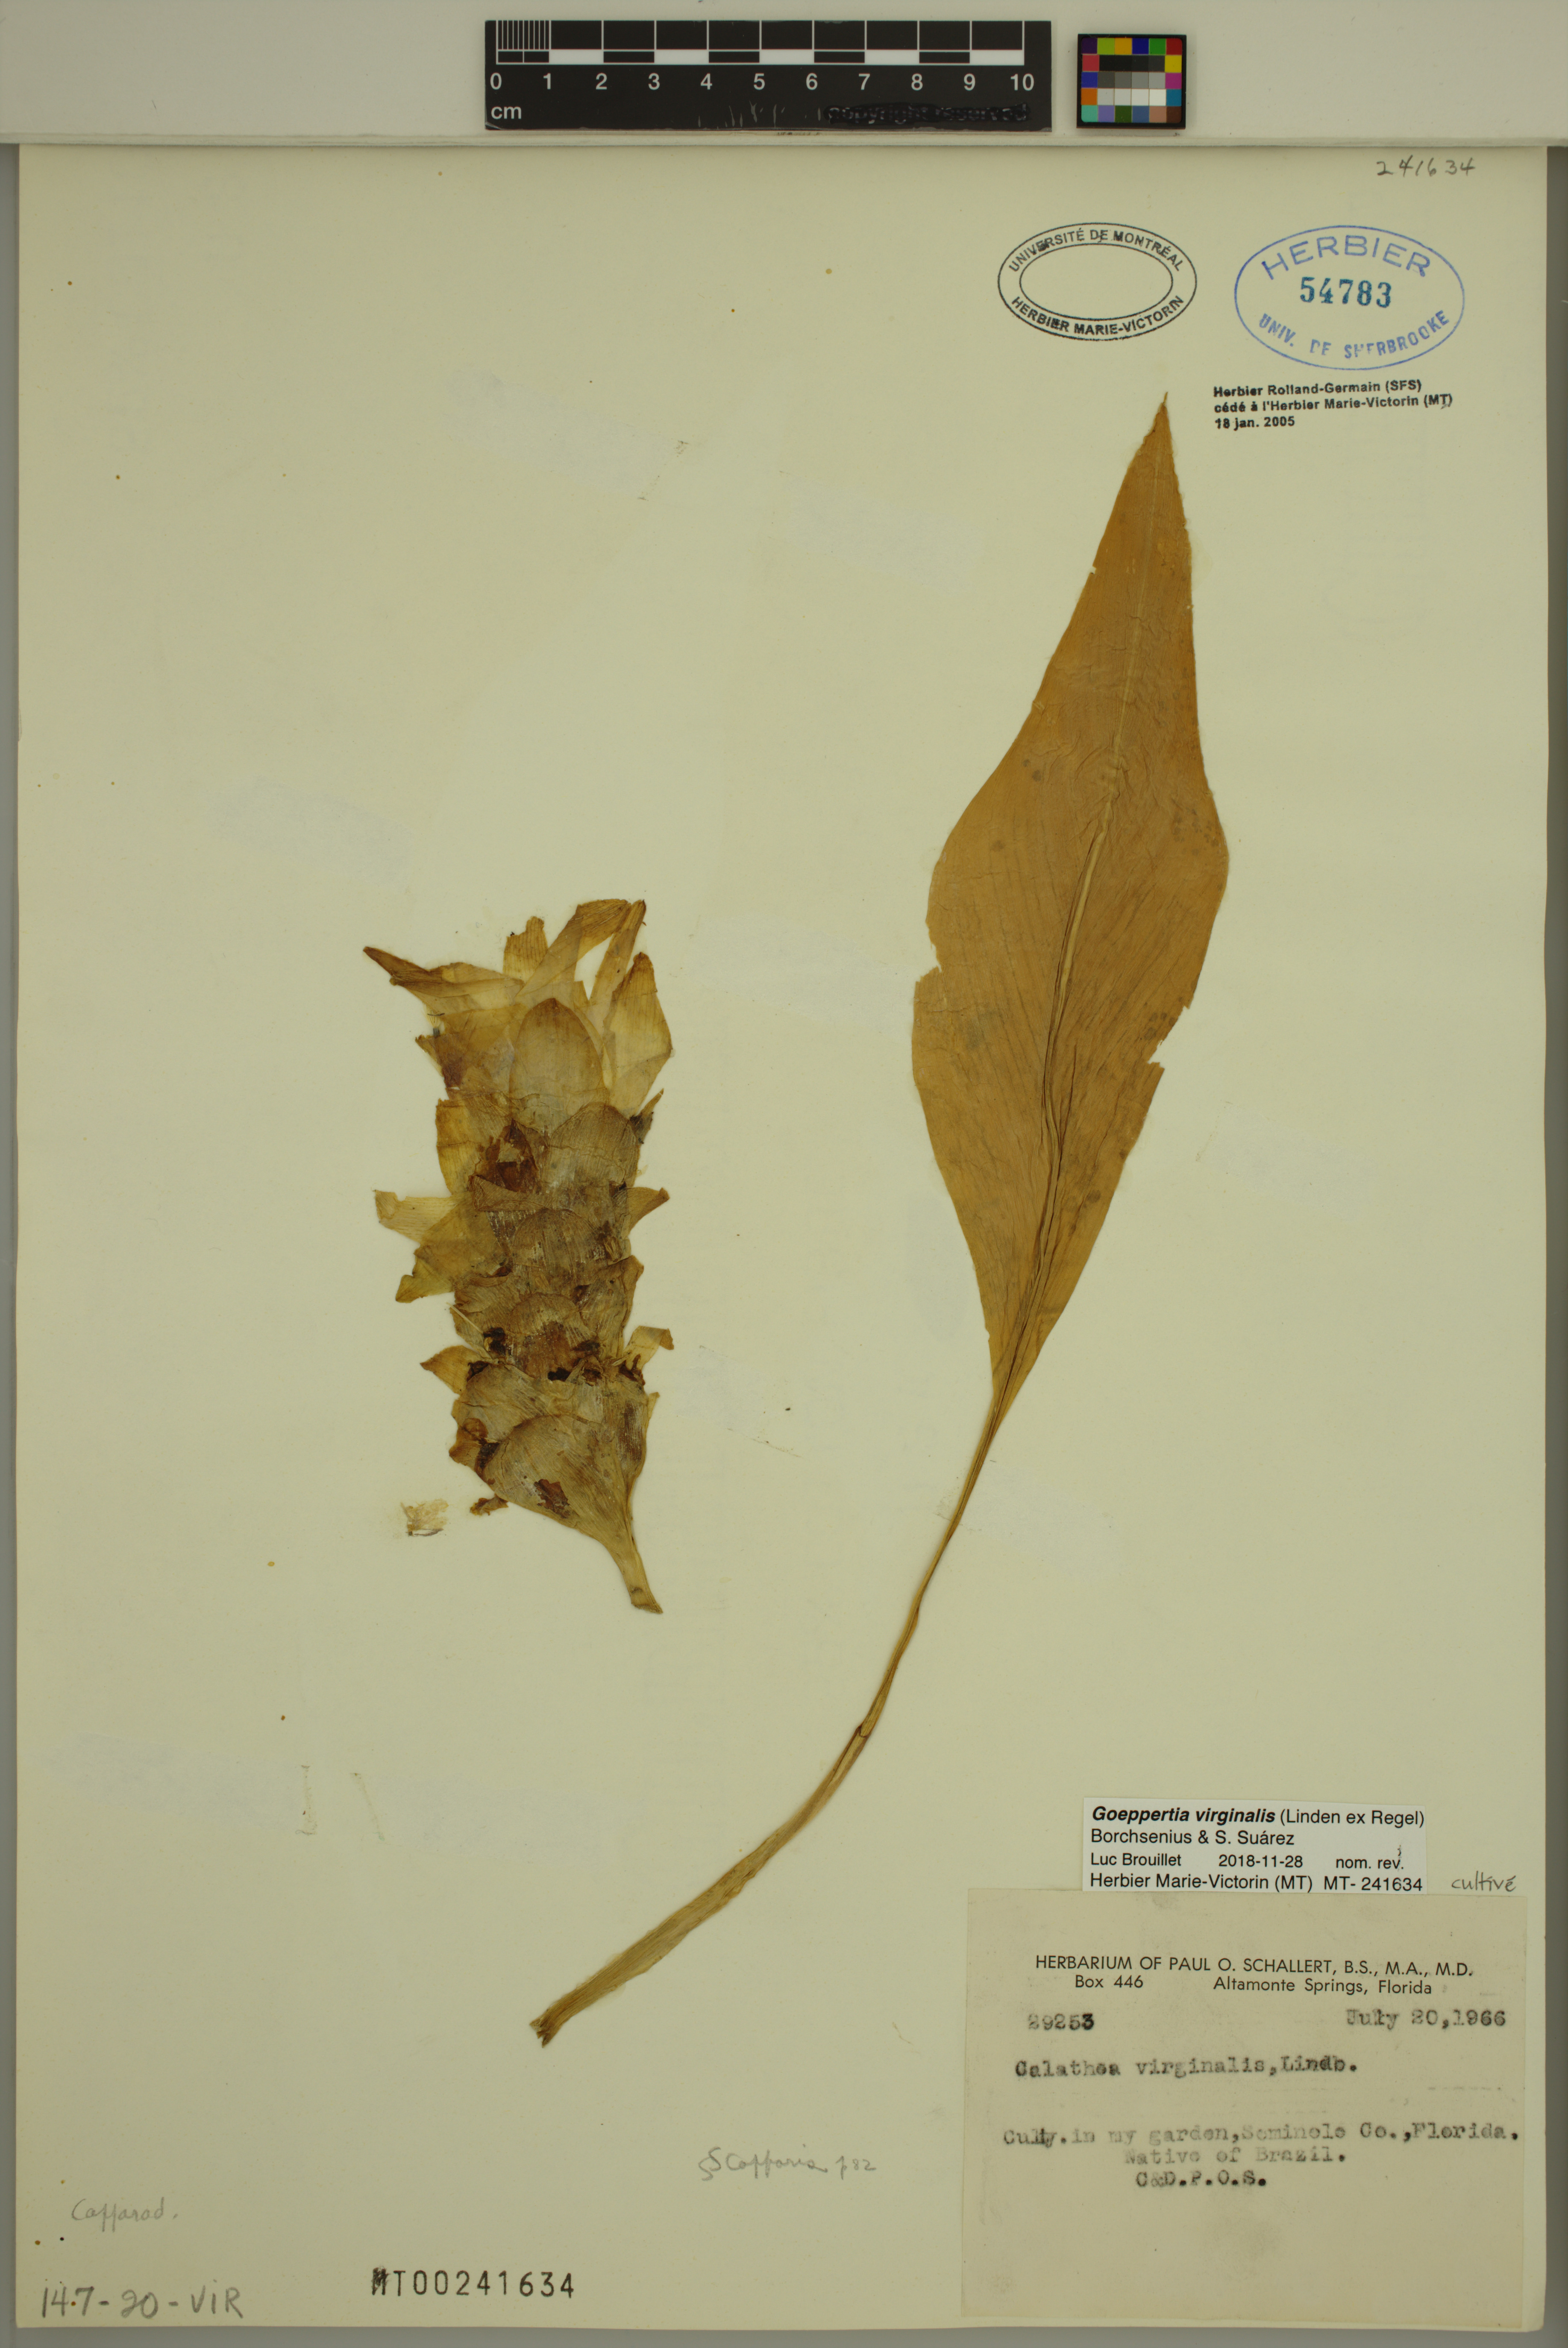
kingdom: Plantae
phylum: Tracheophyta
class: Liliopsida
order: Zingiberales
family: Marantaceae
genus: Goeppertia
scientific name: Goeppertia virginalis
